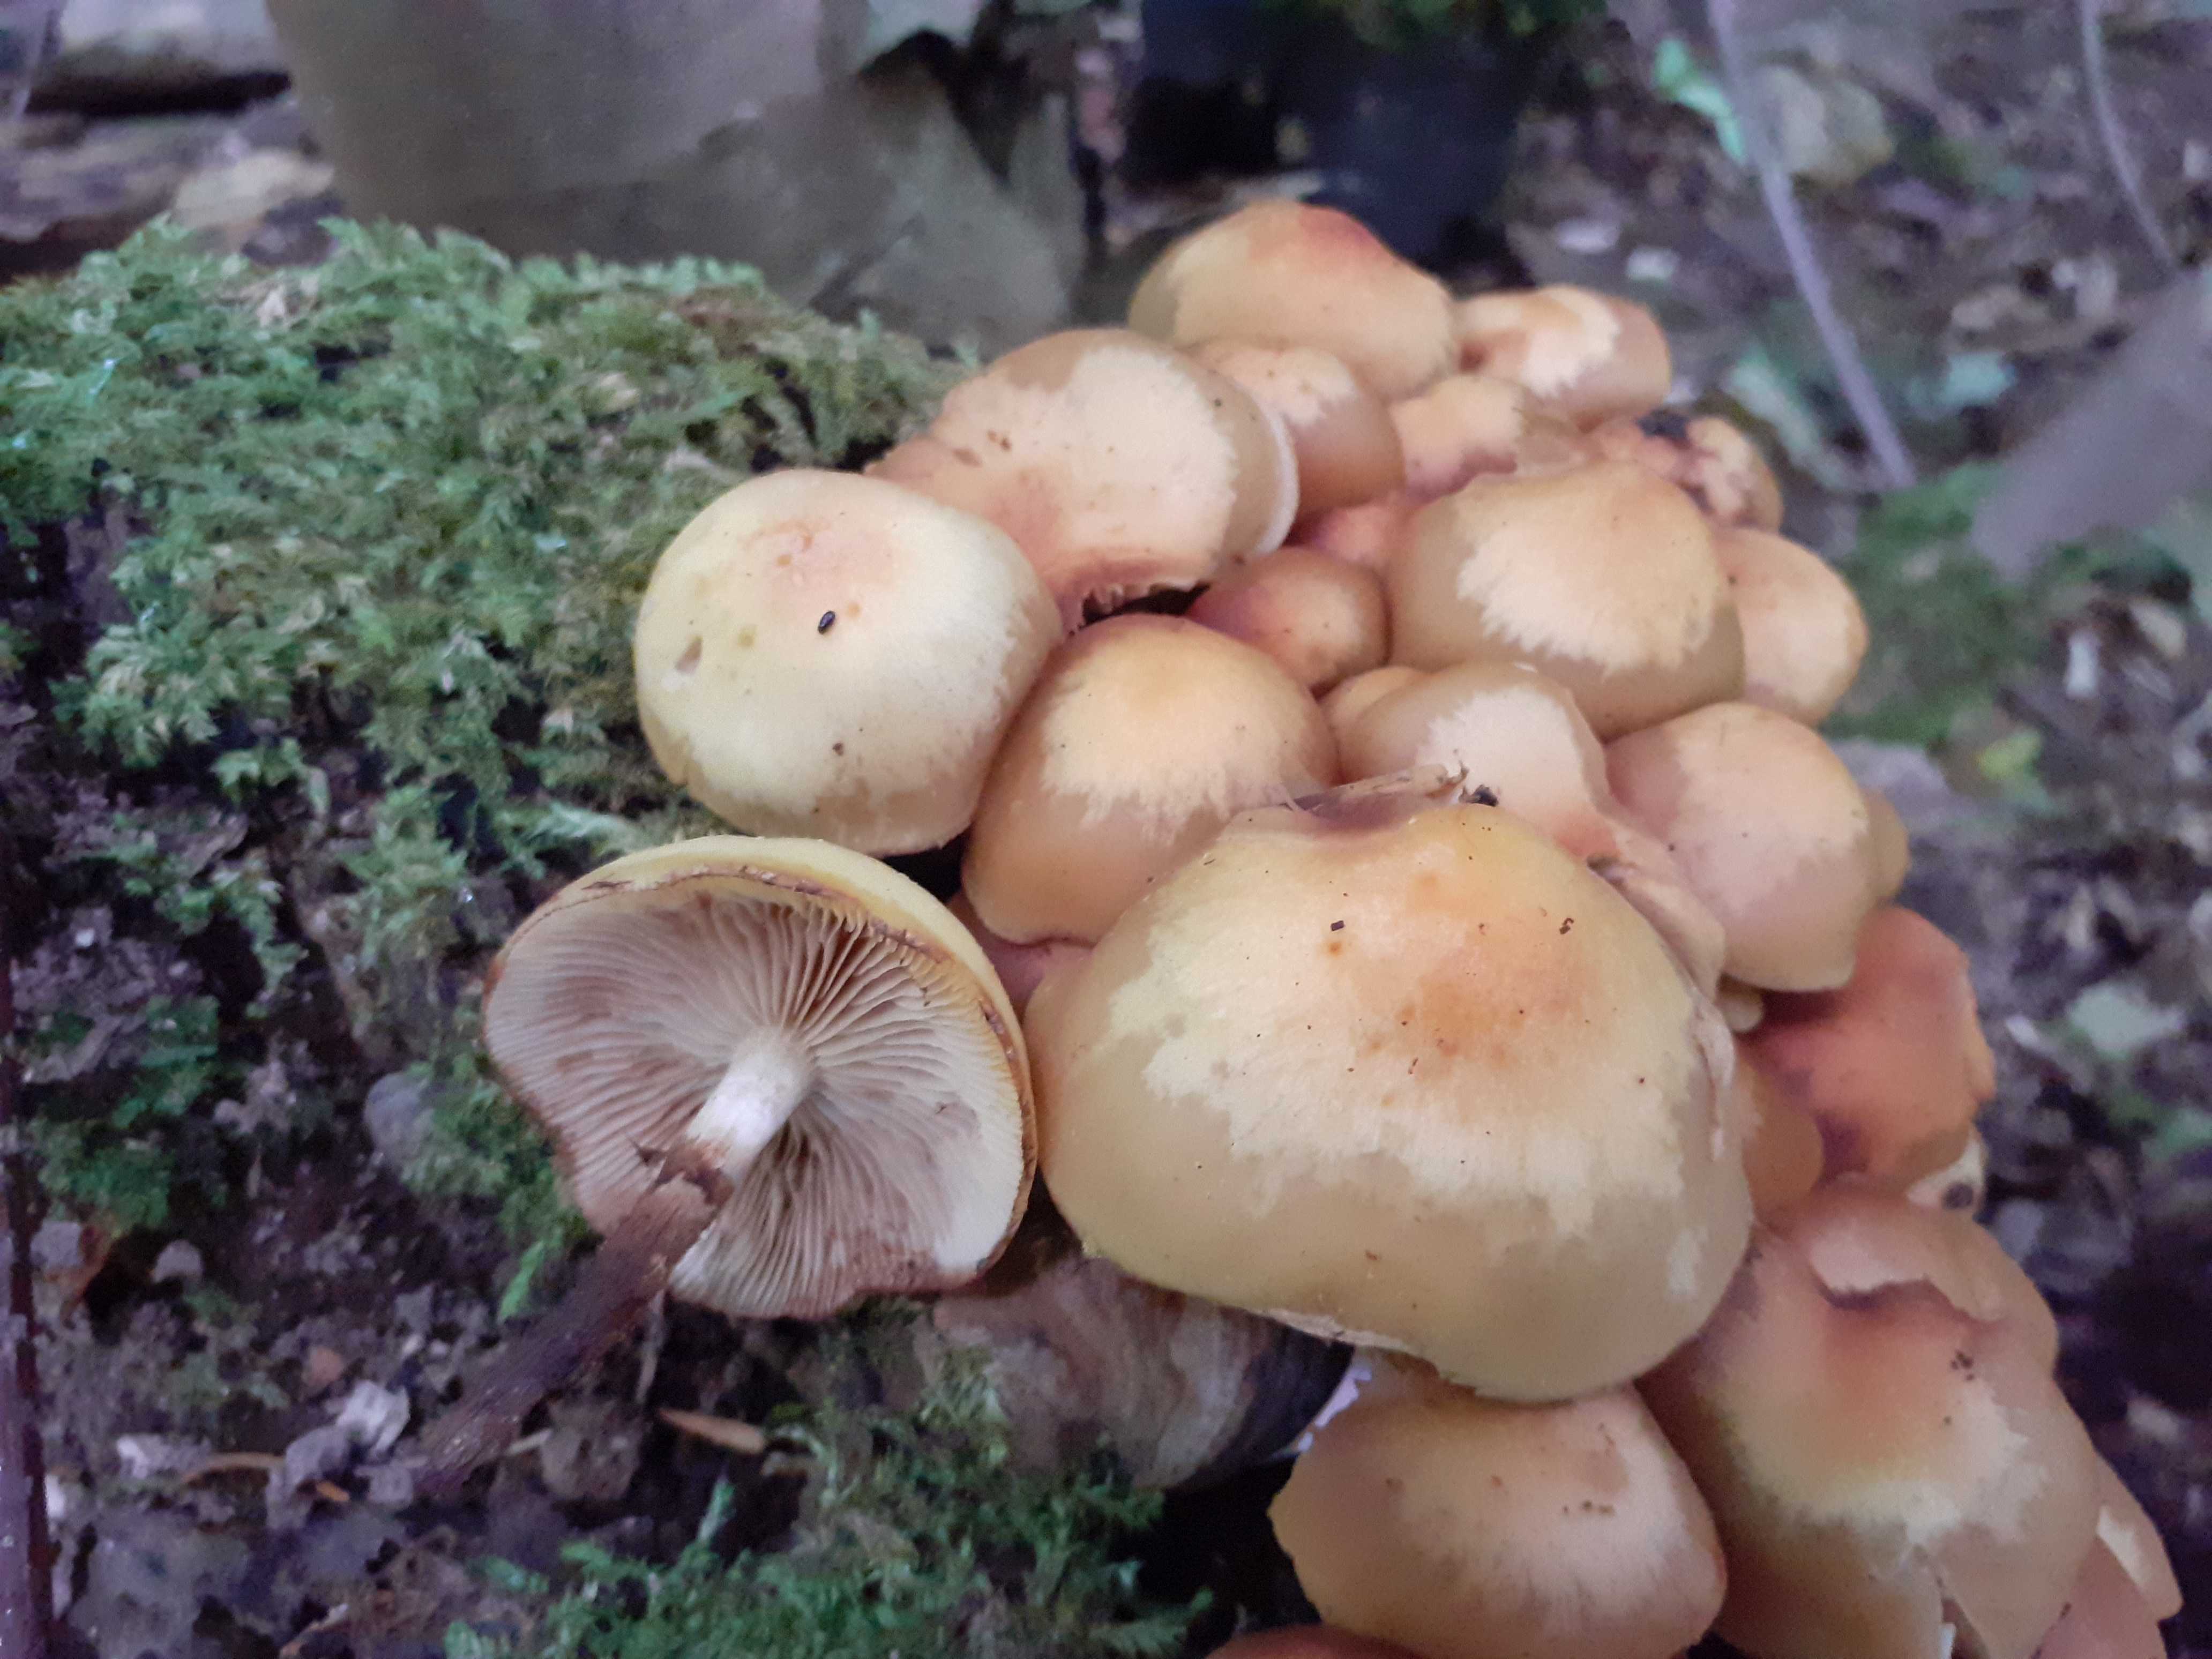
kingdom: Fungi
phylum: Basidiomycota
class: Agaricomycetes
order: Agaricales
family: Strophariaceae
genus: Kuehneromyces
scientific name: Kuehneromyces mutabilis
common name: foranderlig skælhat
